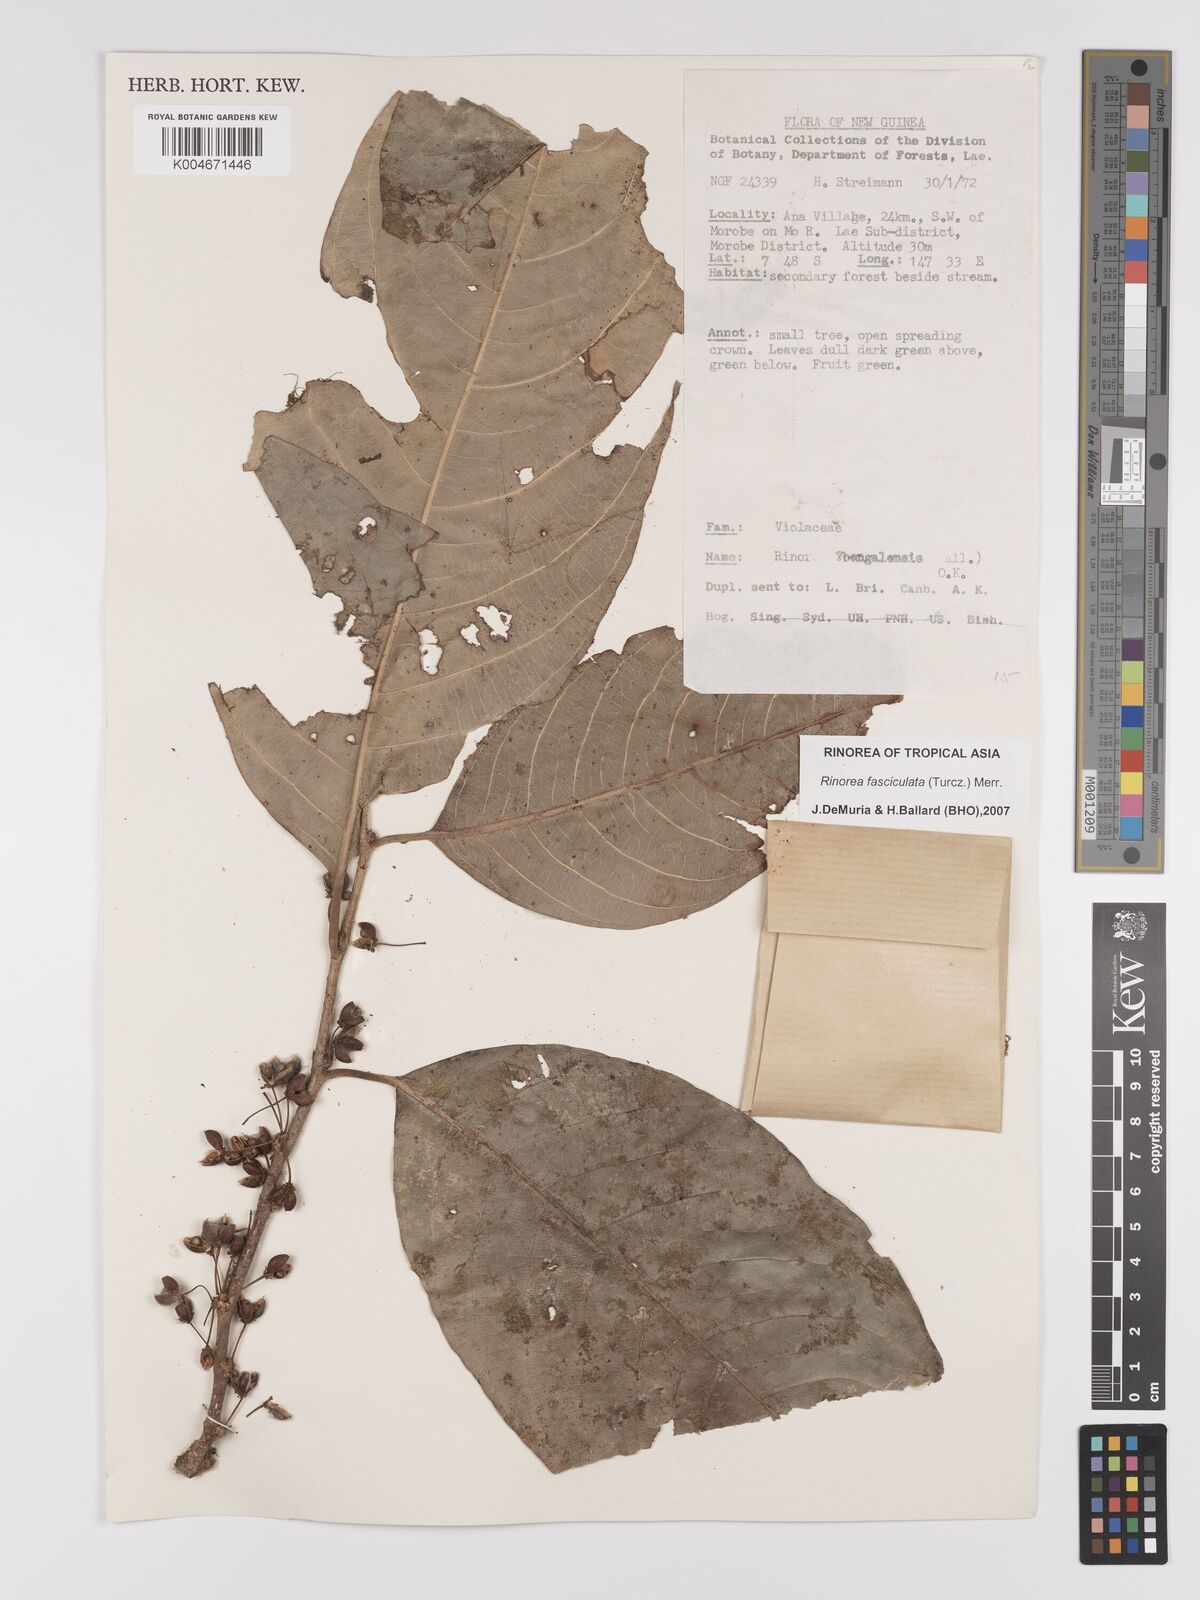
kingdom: Plantae
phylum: Tracheophyta
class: Magnoliopsida
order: Malpighiales
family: Violaceae
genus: Rinorea
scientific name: Rinorea bengalensis
